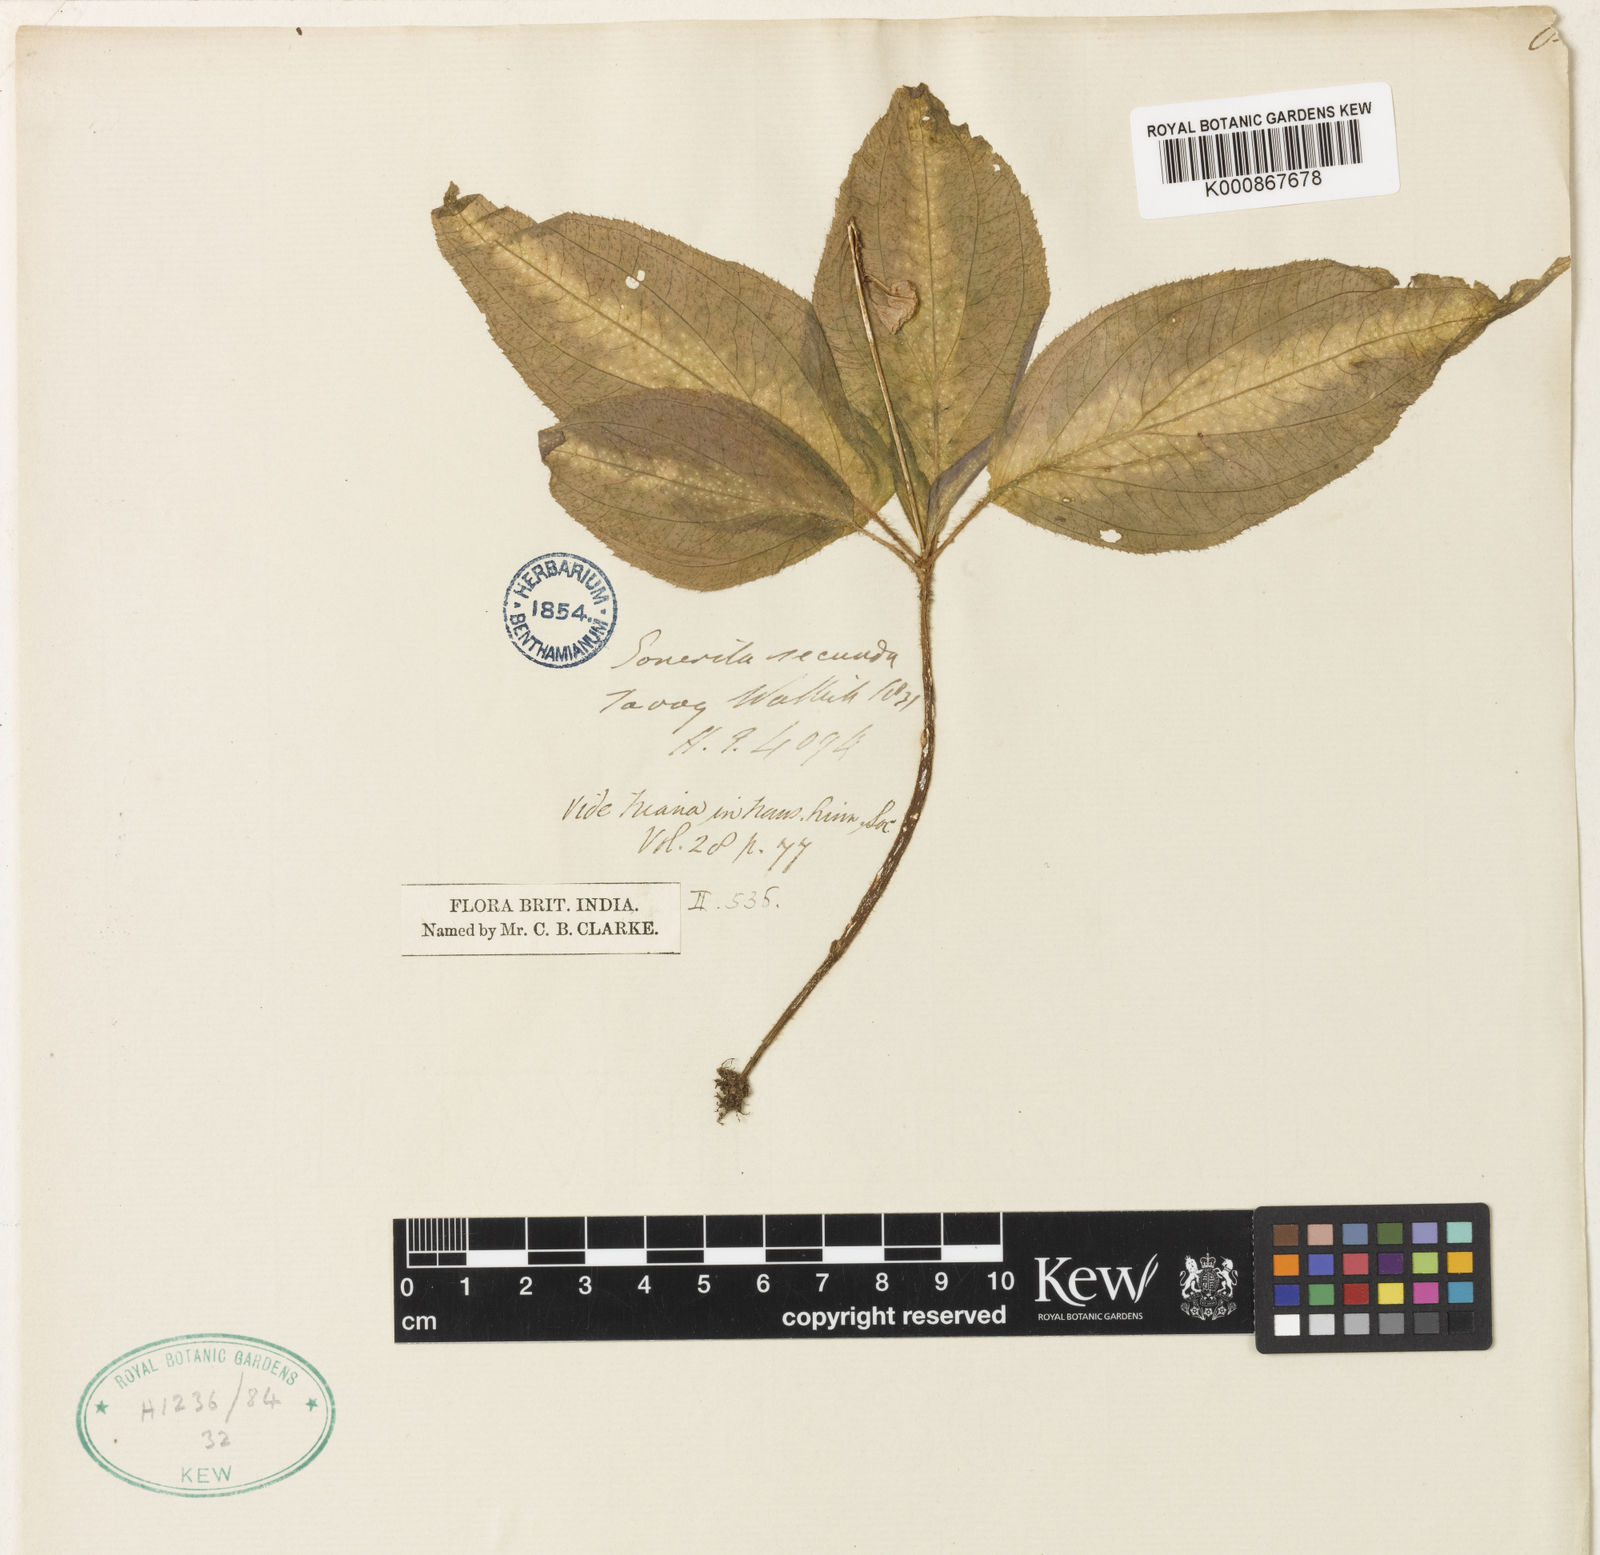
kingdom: Plantae
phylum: Tracheophyta
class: Magnoliopsida
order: Myrtales
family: Melastomataceae
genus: Sonerila
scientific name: Sonerila
